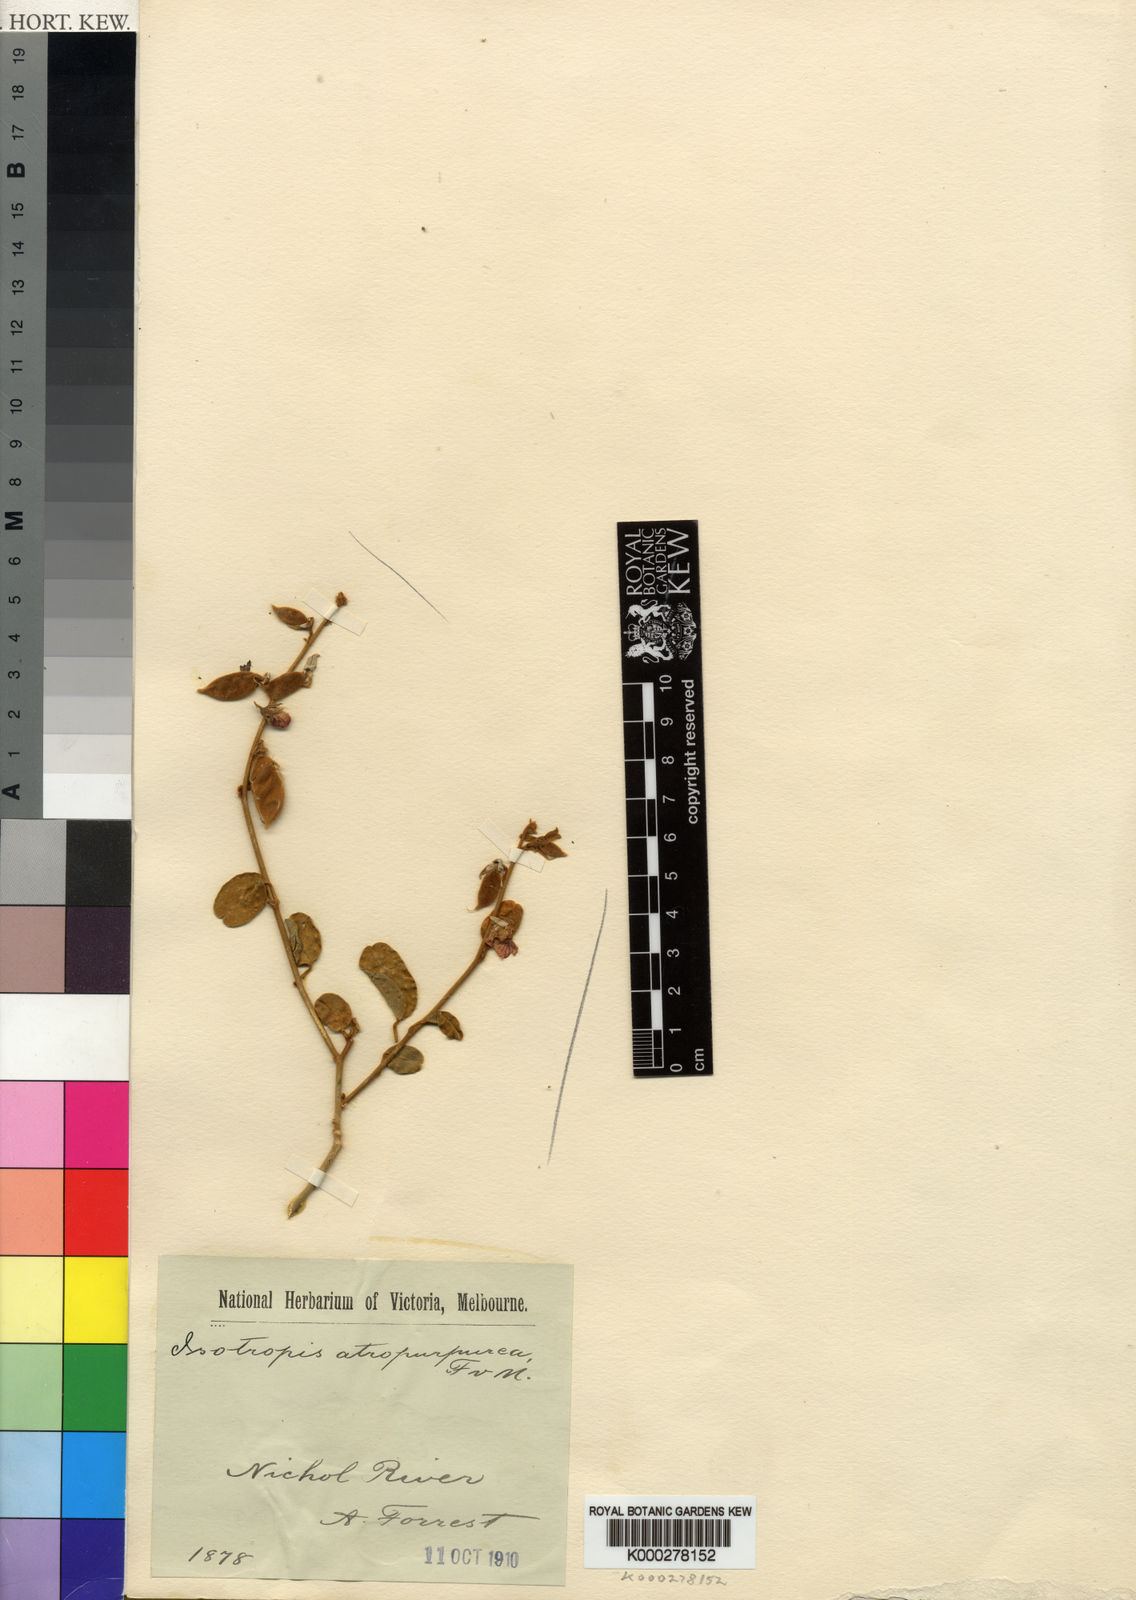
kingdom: Plantae
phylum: Tracheophyta
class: Magnoliopsida
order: Fabales
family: Fabaceae
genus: Isotropis
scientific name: Isotropis atropurpurea
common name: Poison-sage
